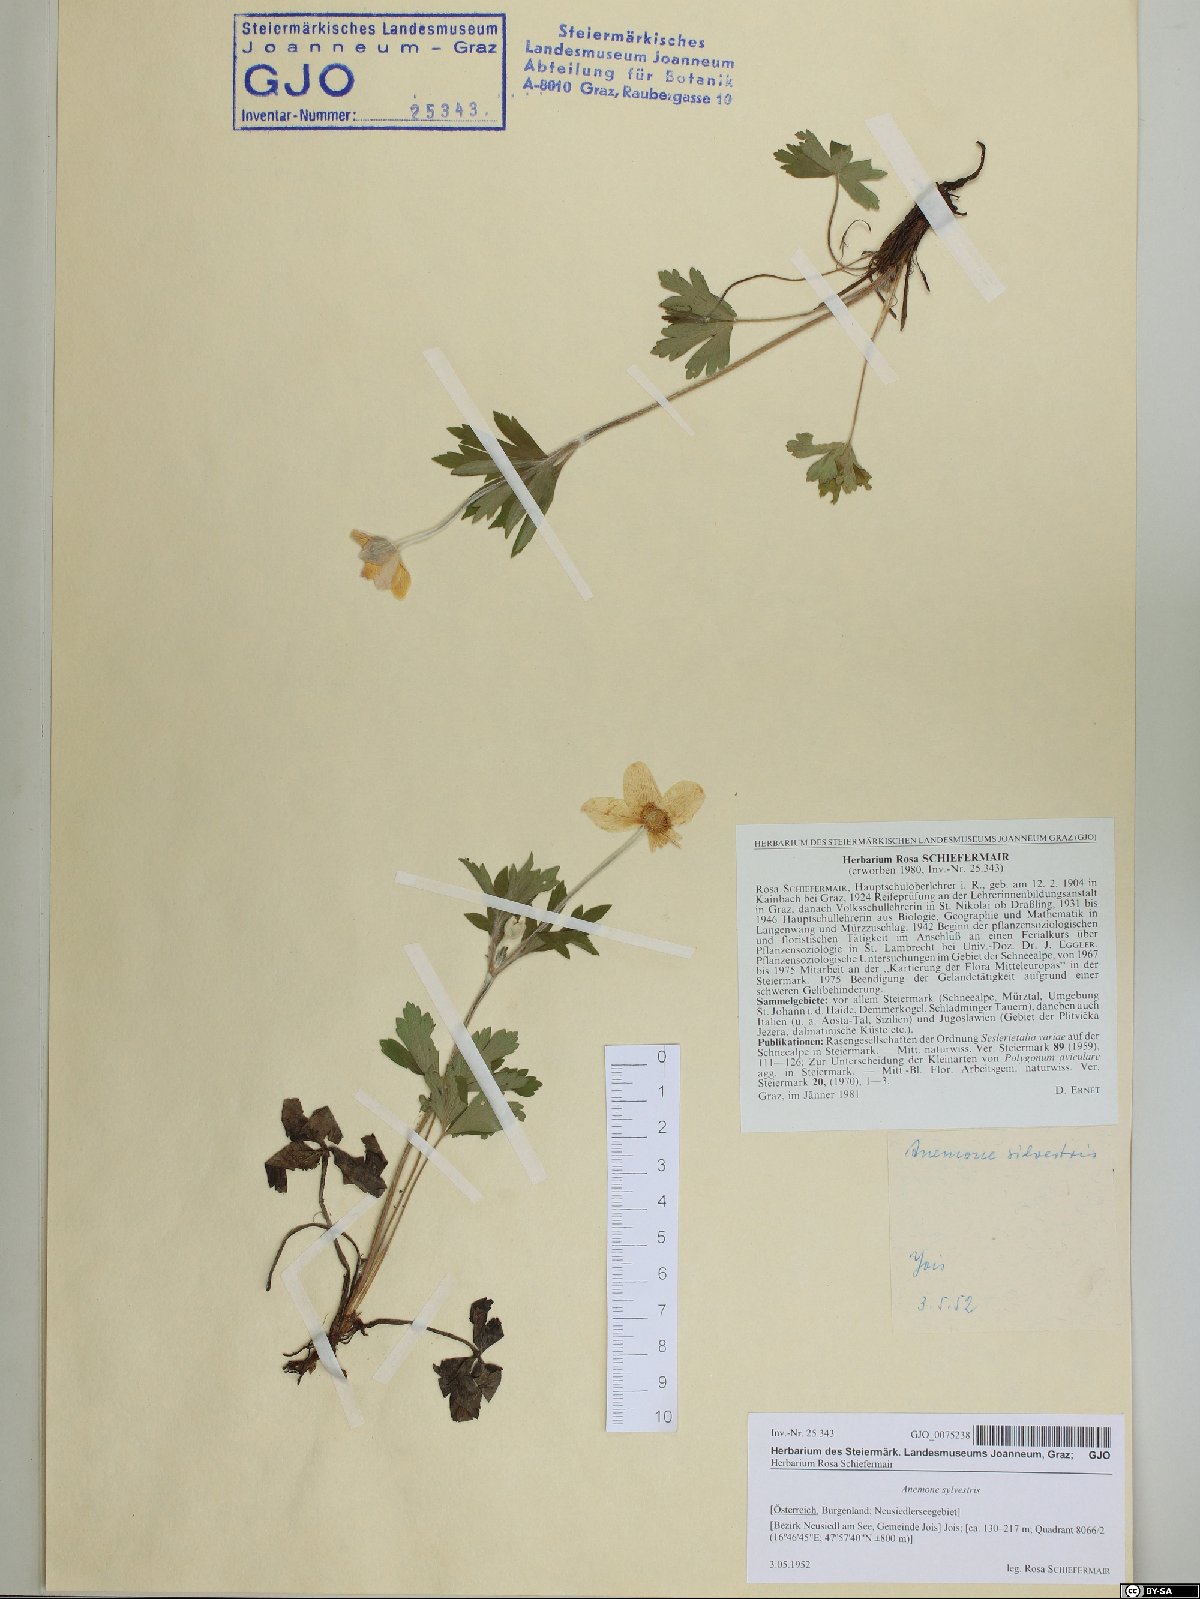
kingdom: Plantae
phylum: Tracheophyta
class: Magnoliopsida
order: Ranunculales
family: Ranunculaceae
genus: Anemone
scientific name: Anemone sylvestris
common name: Snowdrop anemone
